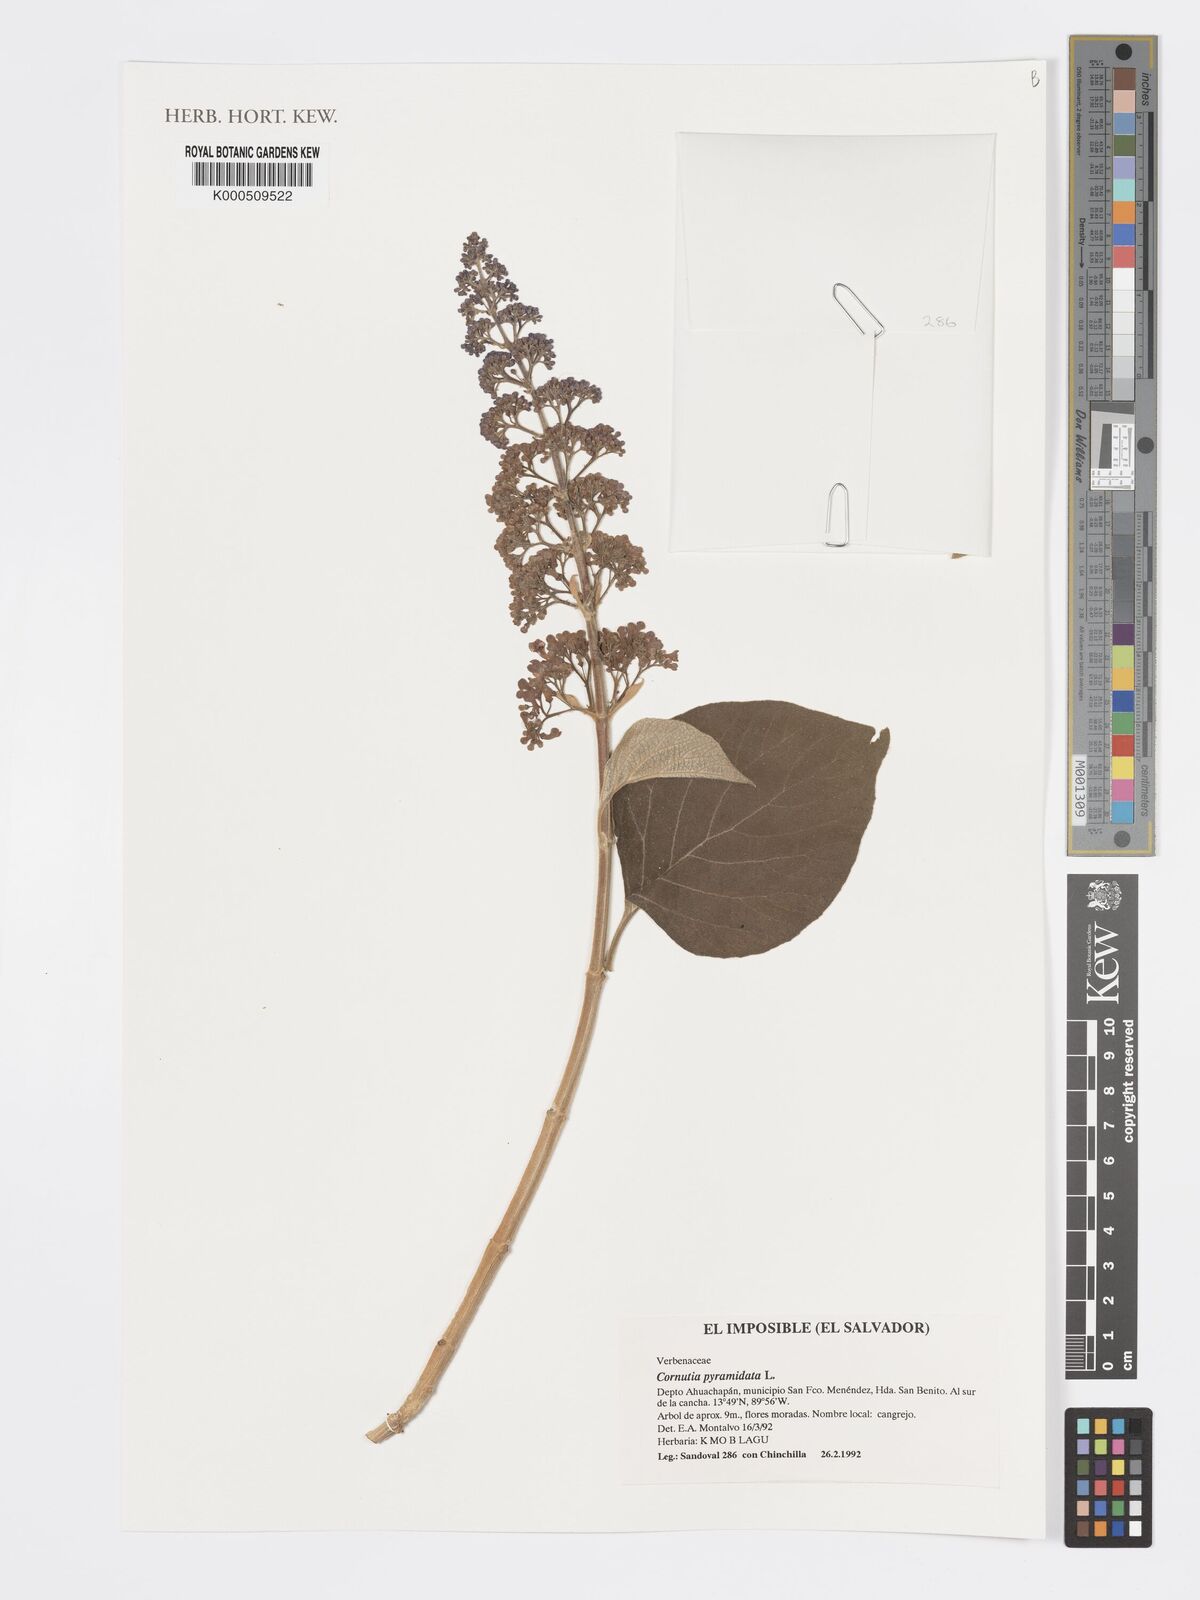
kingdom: Plantae
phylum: Tracheophyta
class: Magnoliopsida
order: Lamiales
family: Lamiaceae
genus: Cornutia
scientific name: Cornutia pyramidata
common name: Azulejo
